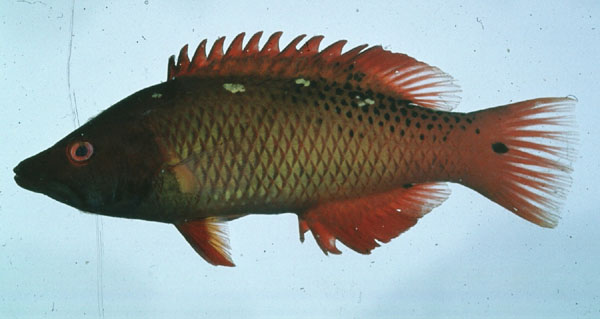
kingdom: Animalia
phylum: Chordata
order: Perciformes
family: Labridae
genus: Bodianus
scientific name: Bodianus diana
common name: Diana's hogfish
